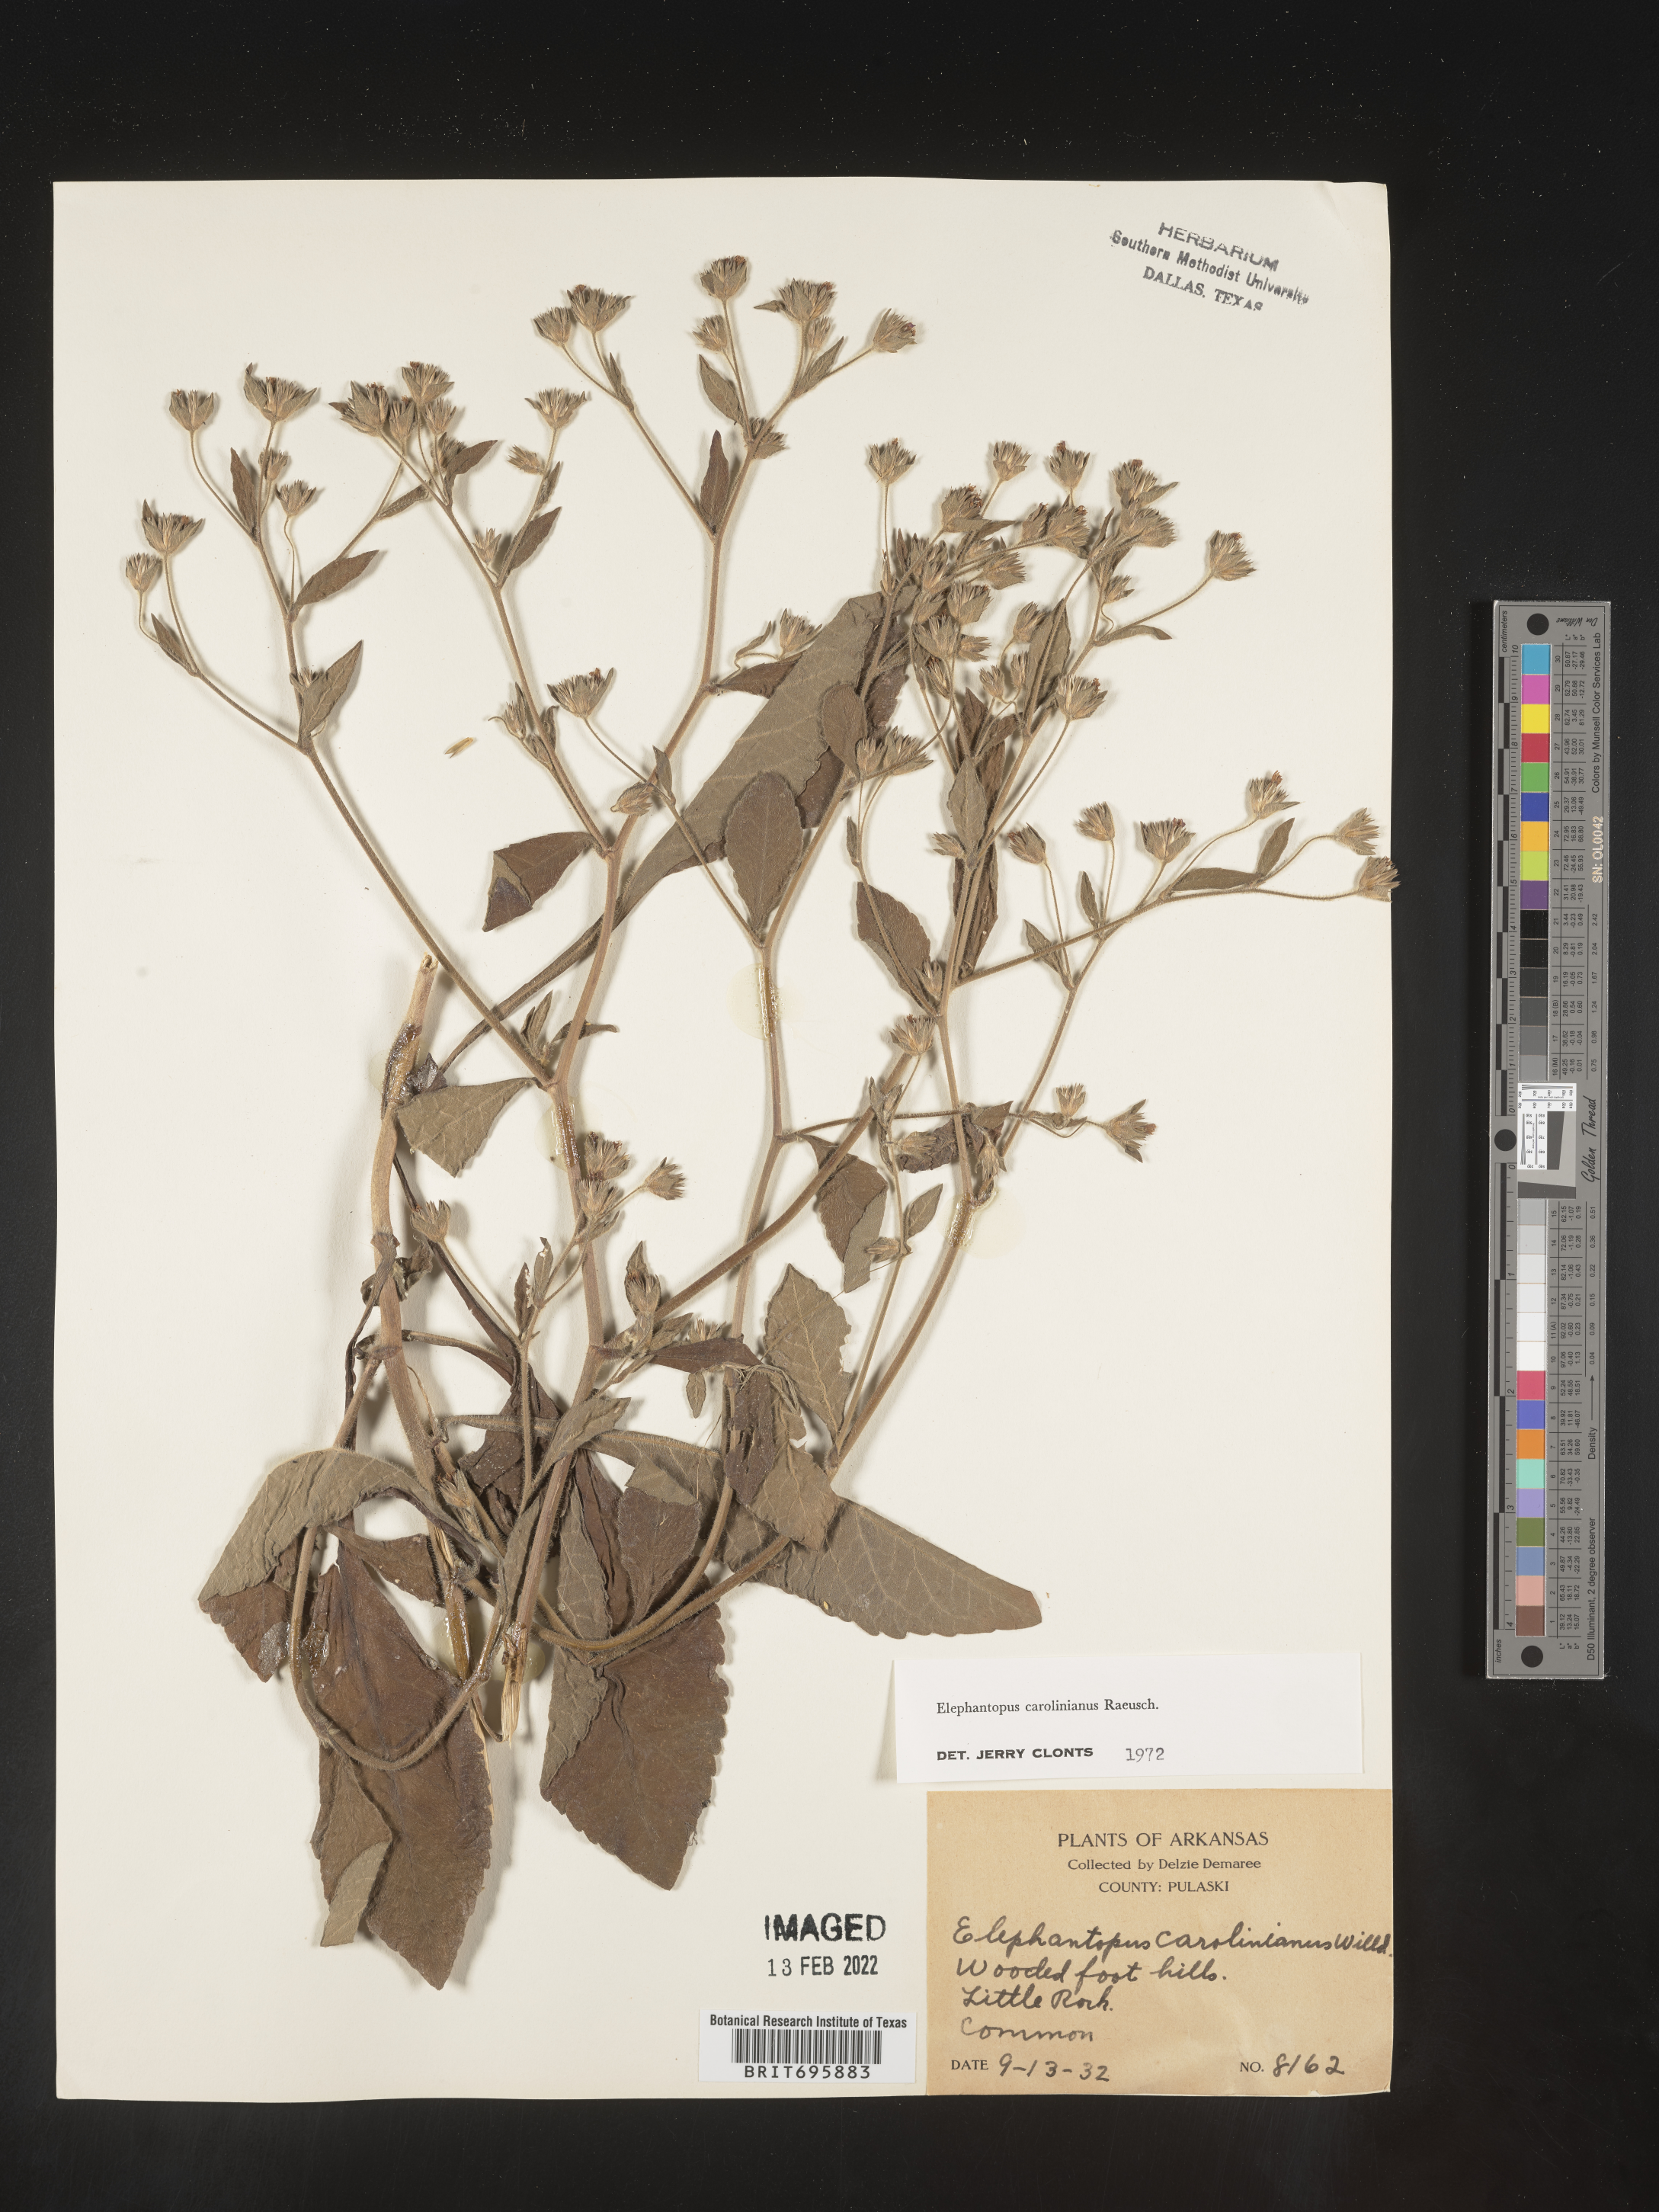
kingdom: Plantae
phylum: Tracheophyta
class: Magnoliopsida
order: Asterales
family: Asteraceae
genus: Elephantopus
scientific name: Elephantopus carolinianus
